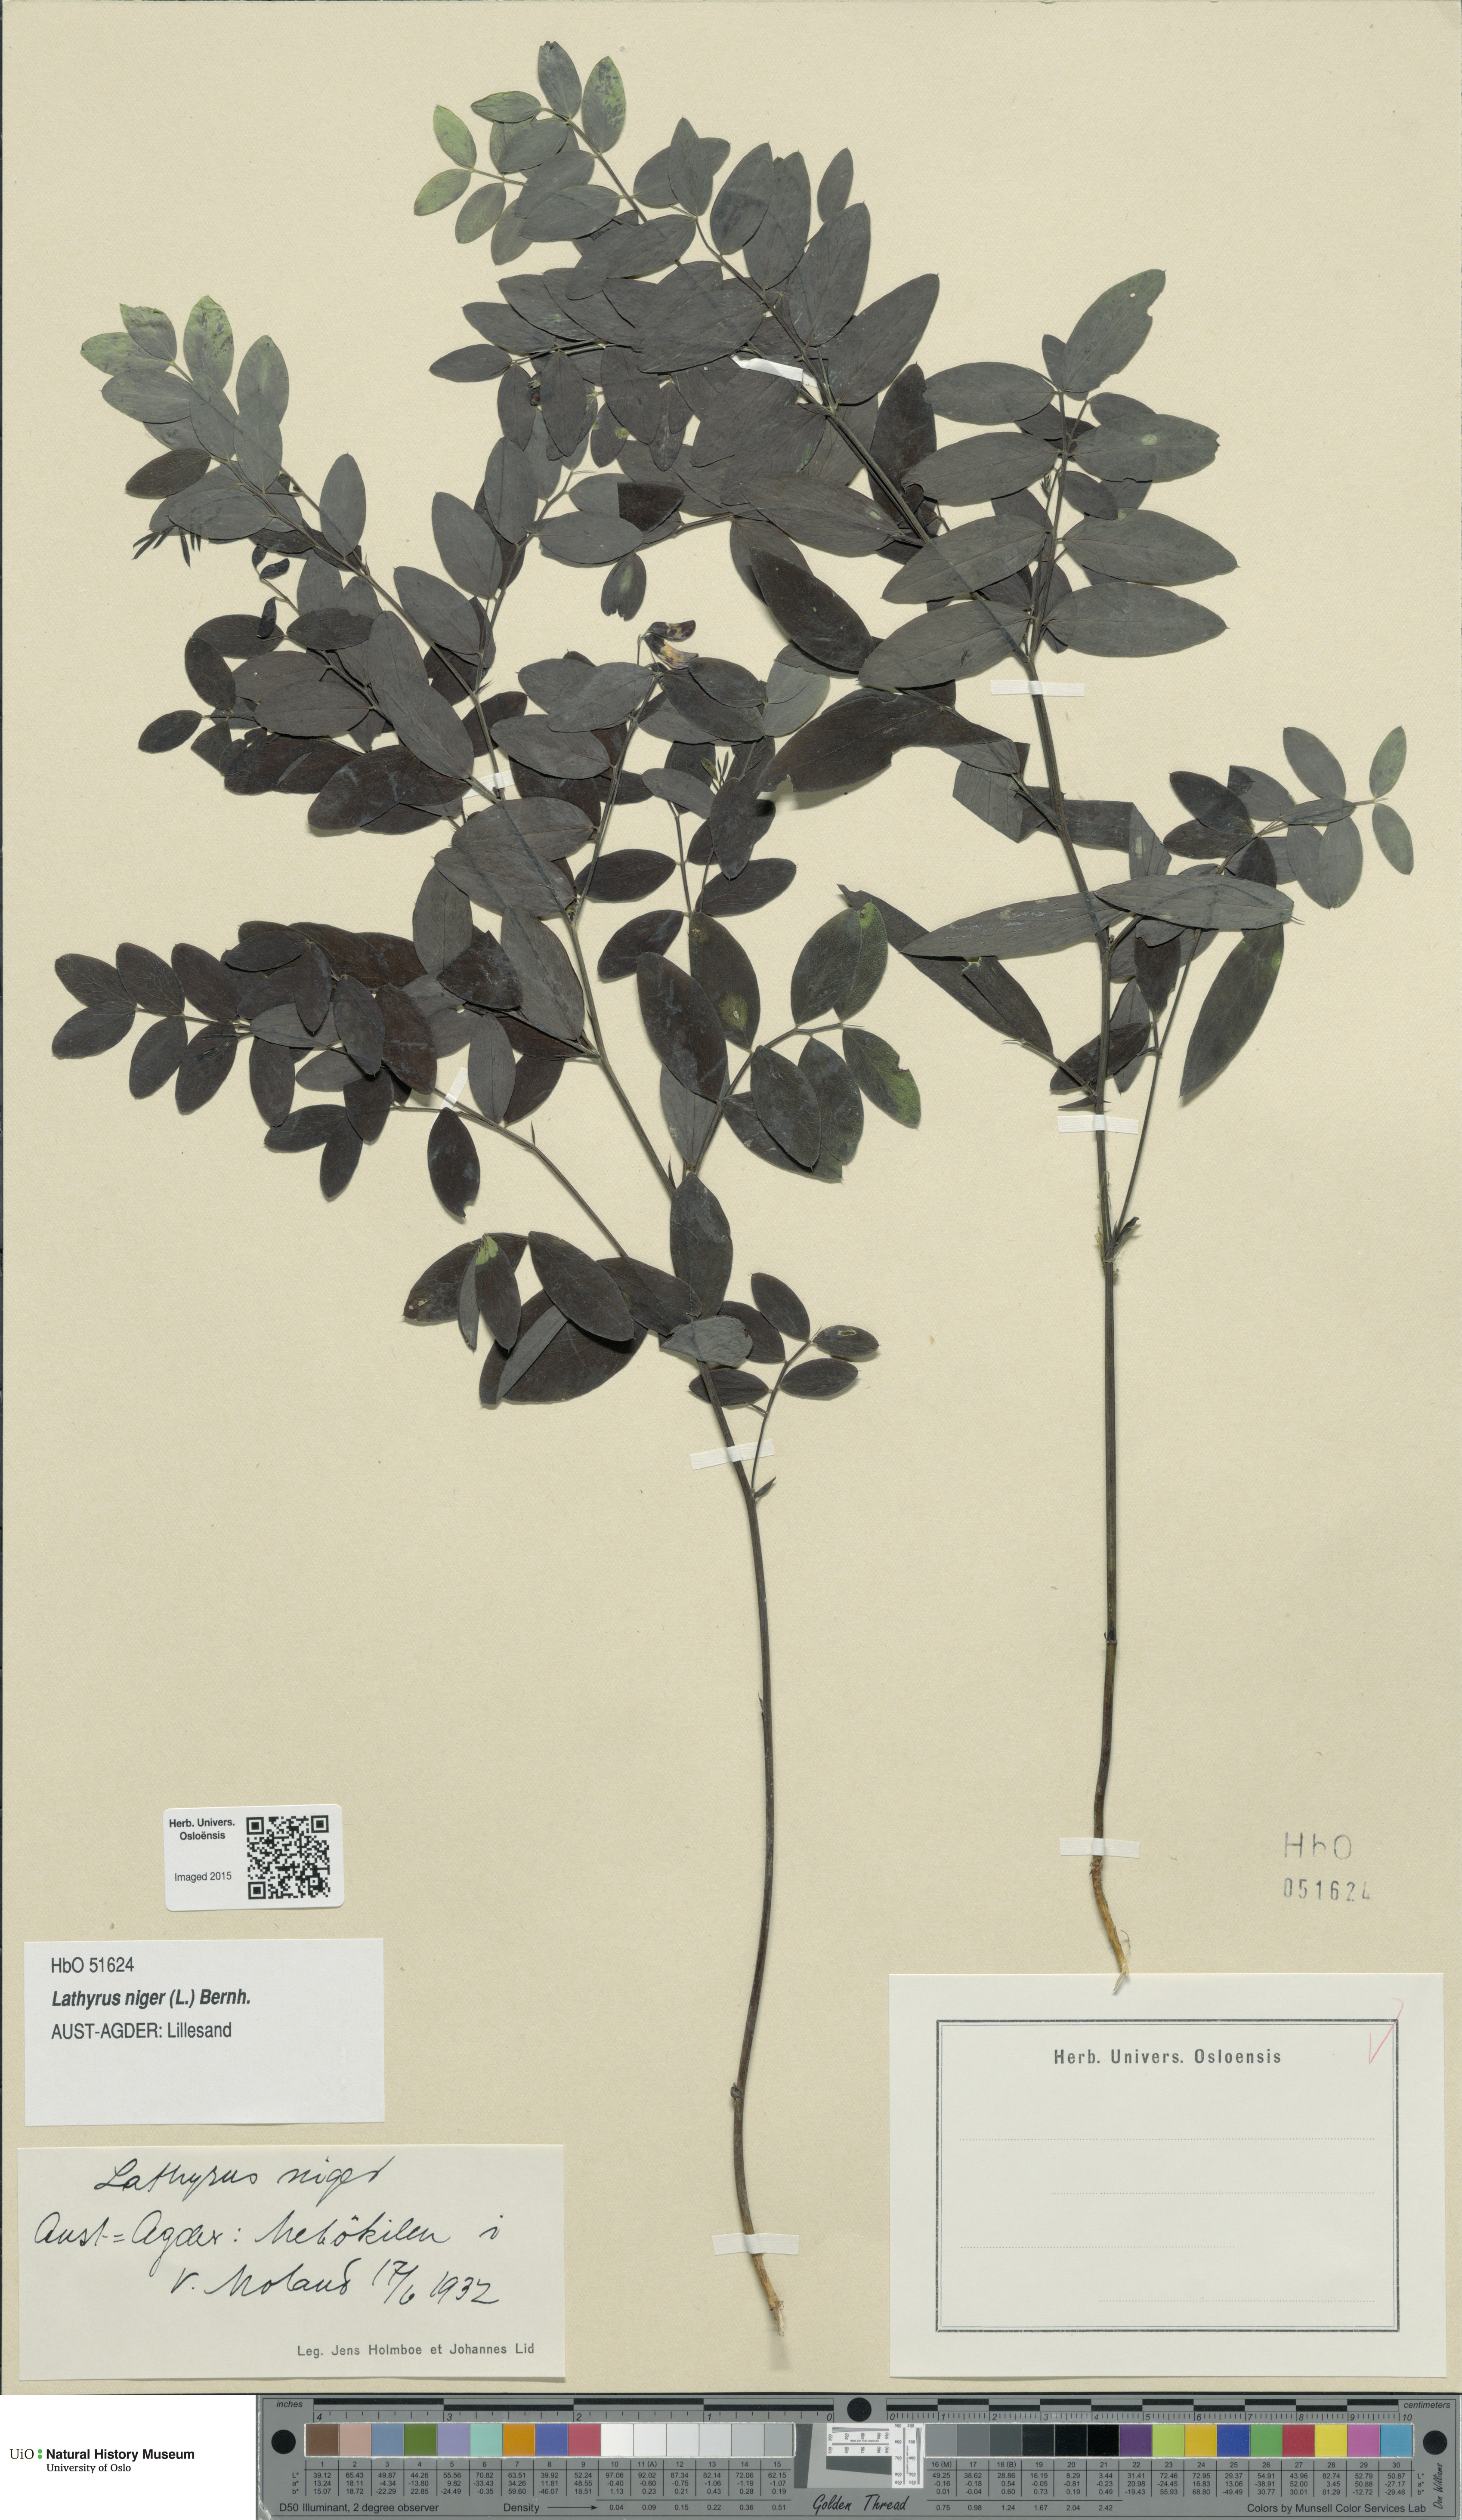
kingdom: Plantae
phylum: Tracheophyta
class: Magnoliopsida
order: Fabales
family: Fabaceae
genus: Lathyrus
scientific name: Lathyrus niger
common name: Black pea
